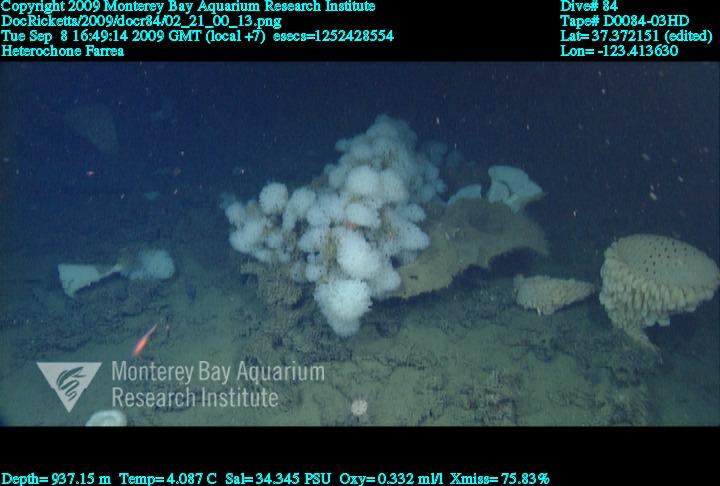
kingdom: Animalia
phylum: Porifera
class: Hexactinellida
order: Sceptrulophora
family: Aphrocallistidae
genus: Heterochone
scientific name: Heterochone
